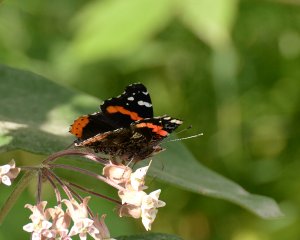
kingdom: Animalia
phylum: Arthropoda
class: Insecta
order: Lepidoptera
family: Nymphalidae
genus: Vanessa
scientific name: Vanessa atalanta
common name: Red Admiral
